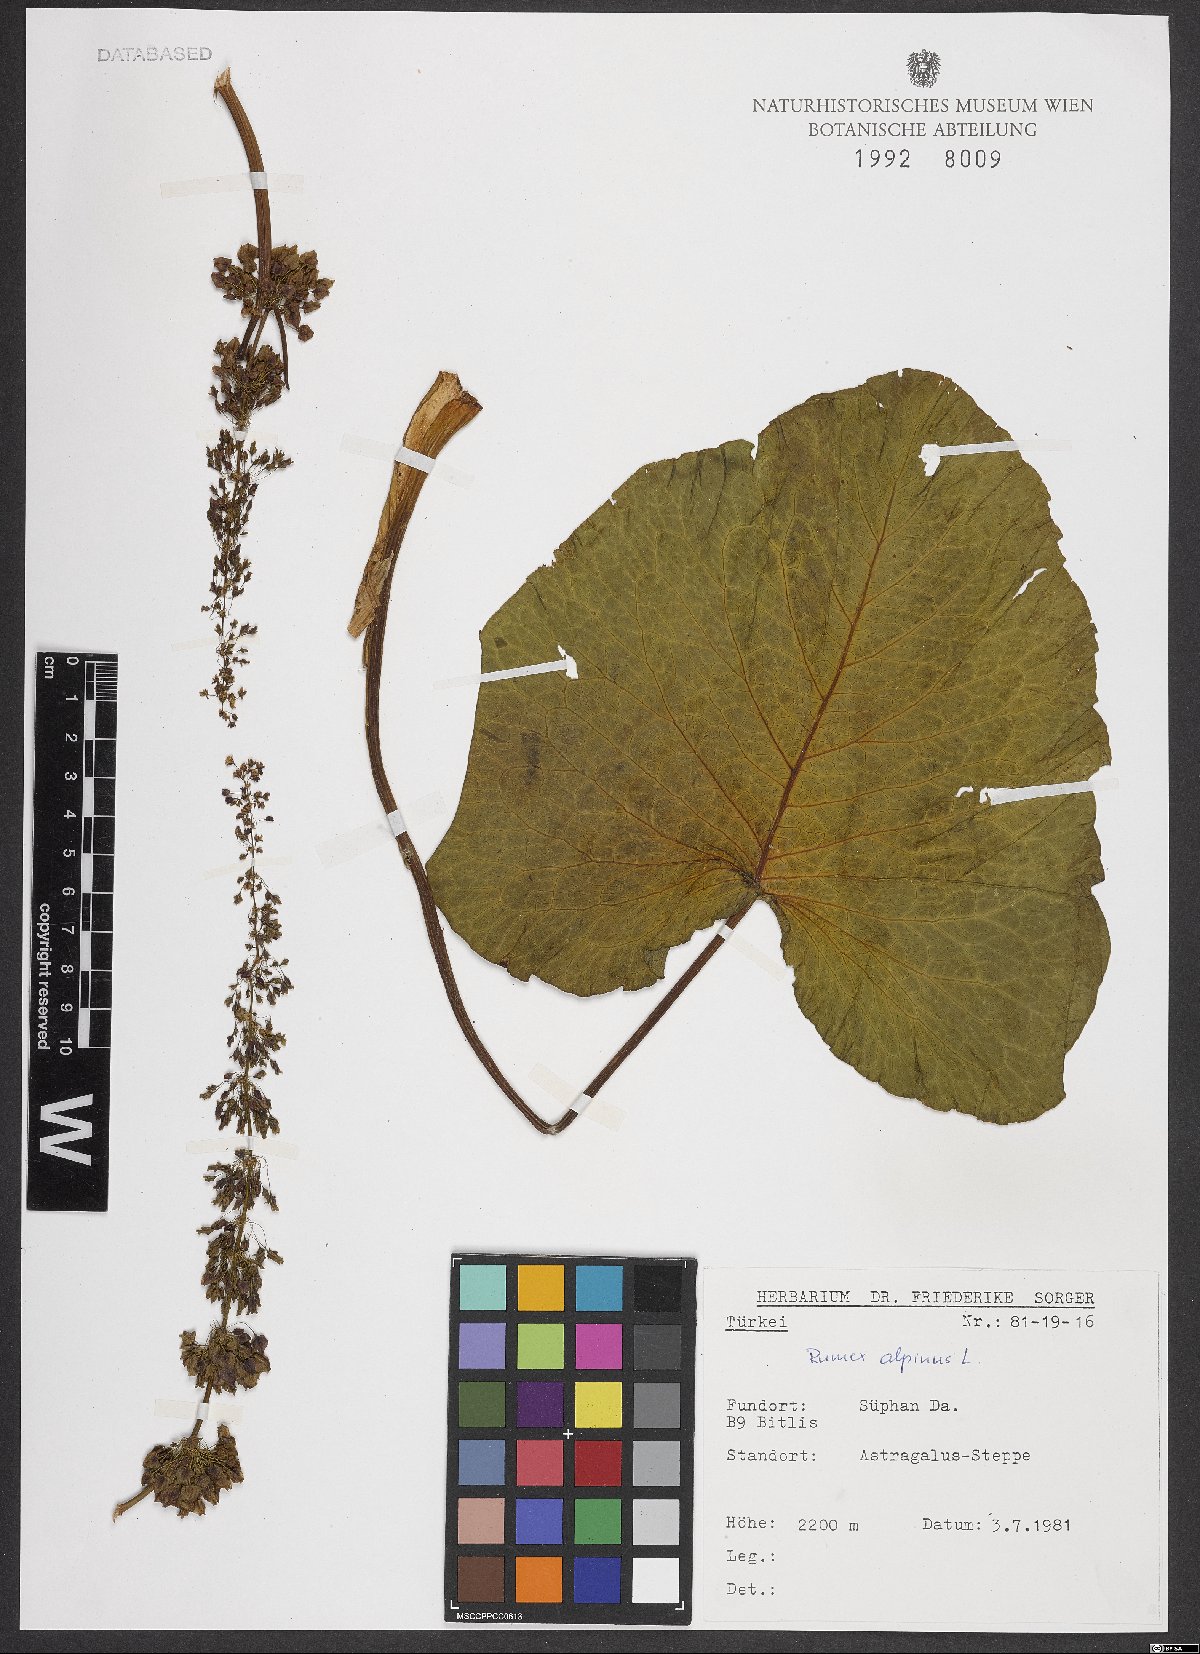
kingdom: Plantae
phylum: Tracheophyta
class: Magnoliopsida
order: Caryophyllales
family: Polygonaceae
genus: Rumex
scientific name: Rumex alpinus
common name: Alpine dock
